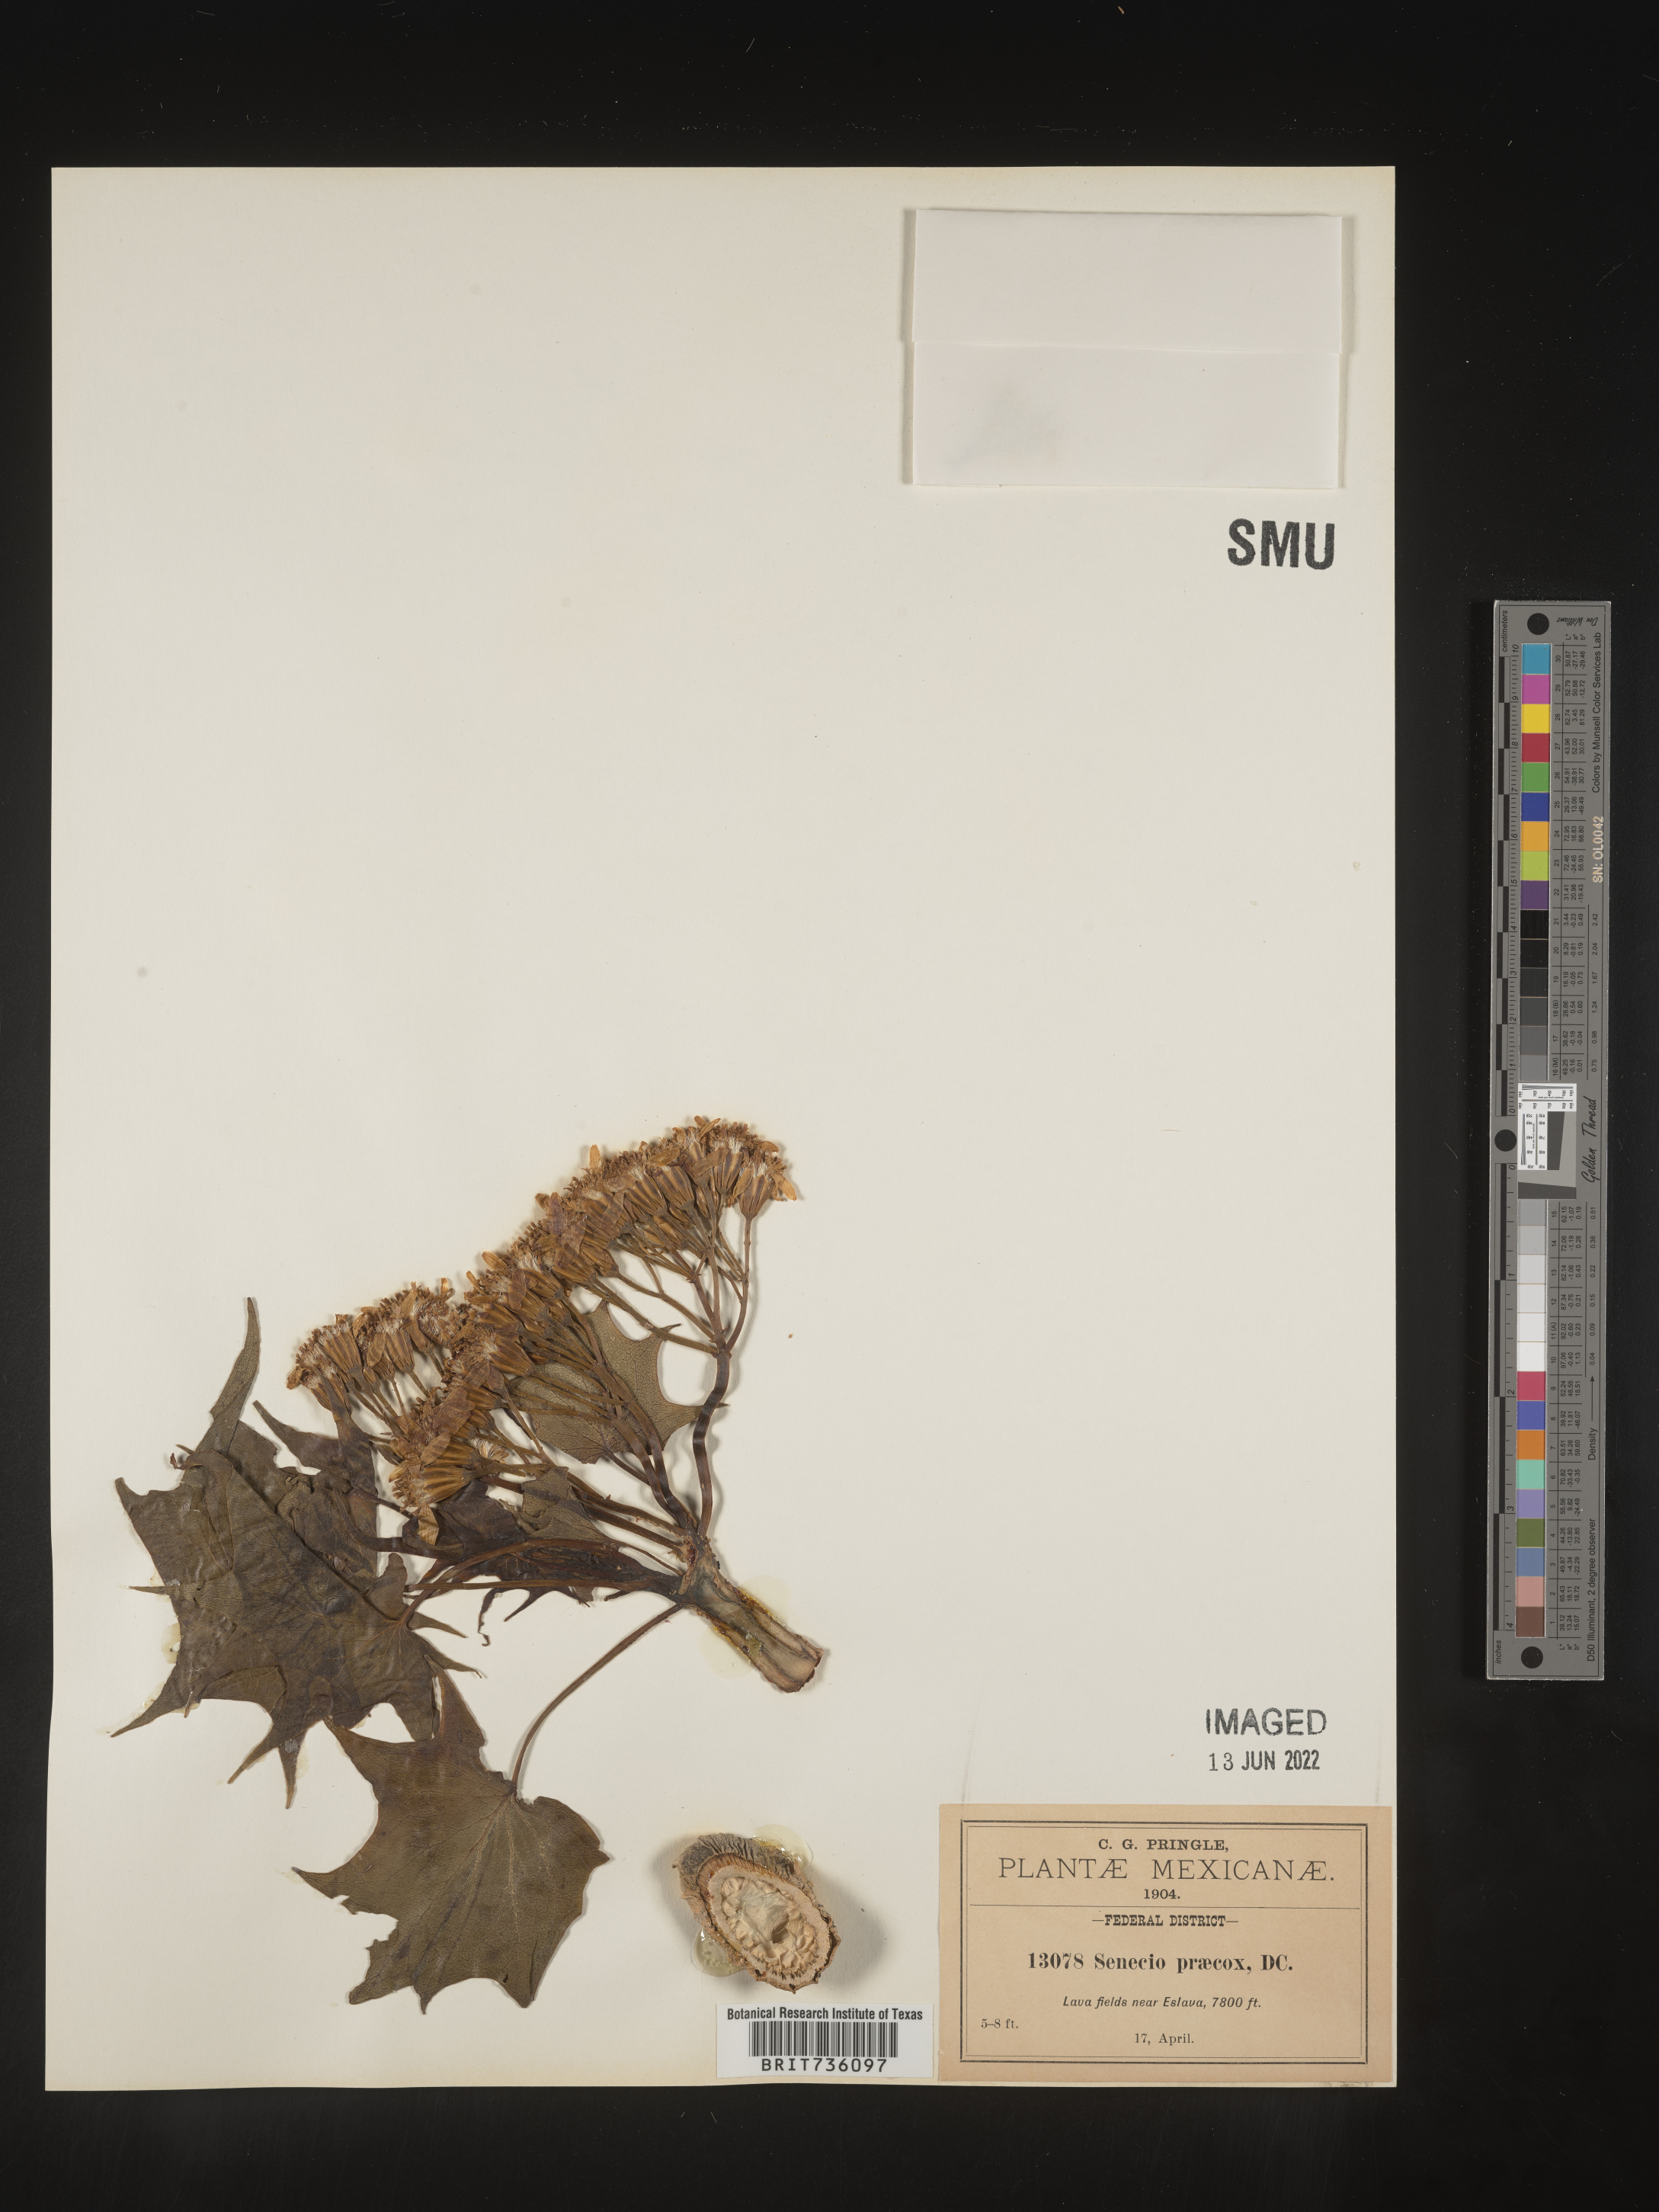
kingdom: Plantae
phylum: Tracheophyta
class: Magnoliopsida
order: Asterales
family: Asteraceae
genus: Pittocaulon
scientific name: Pittocaulon
